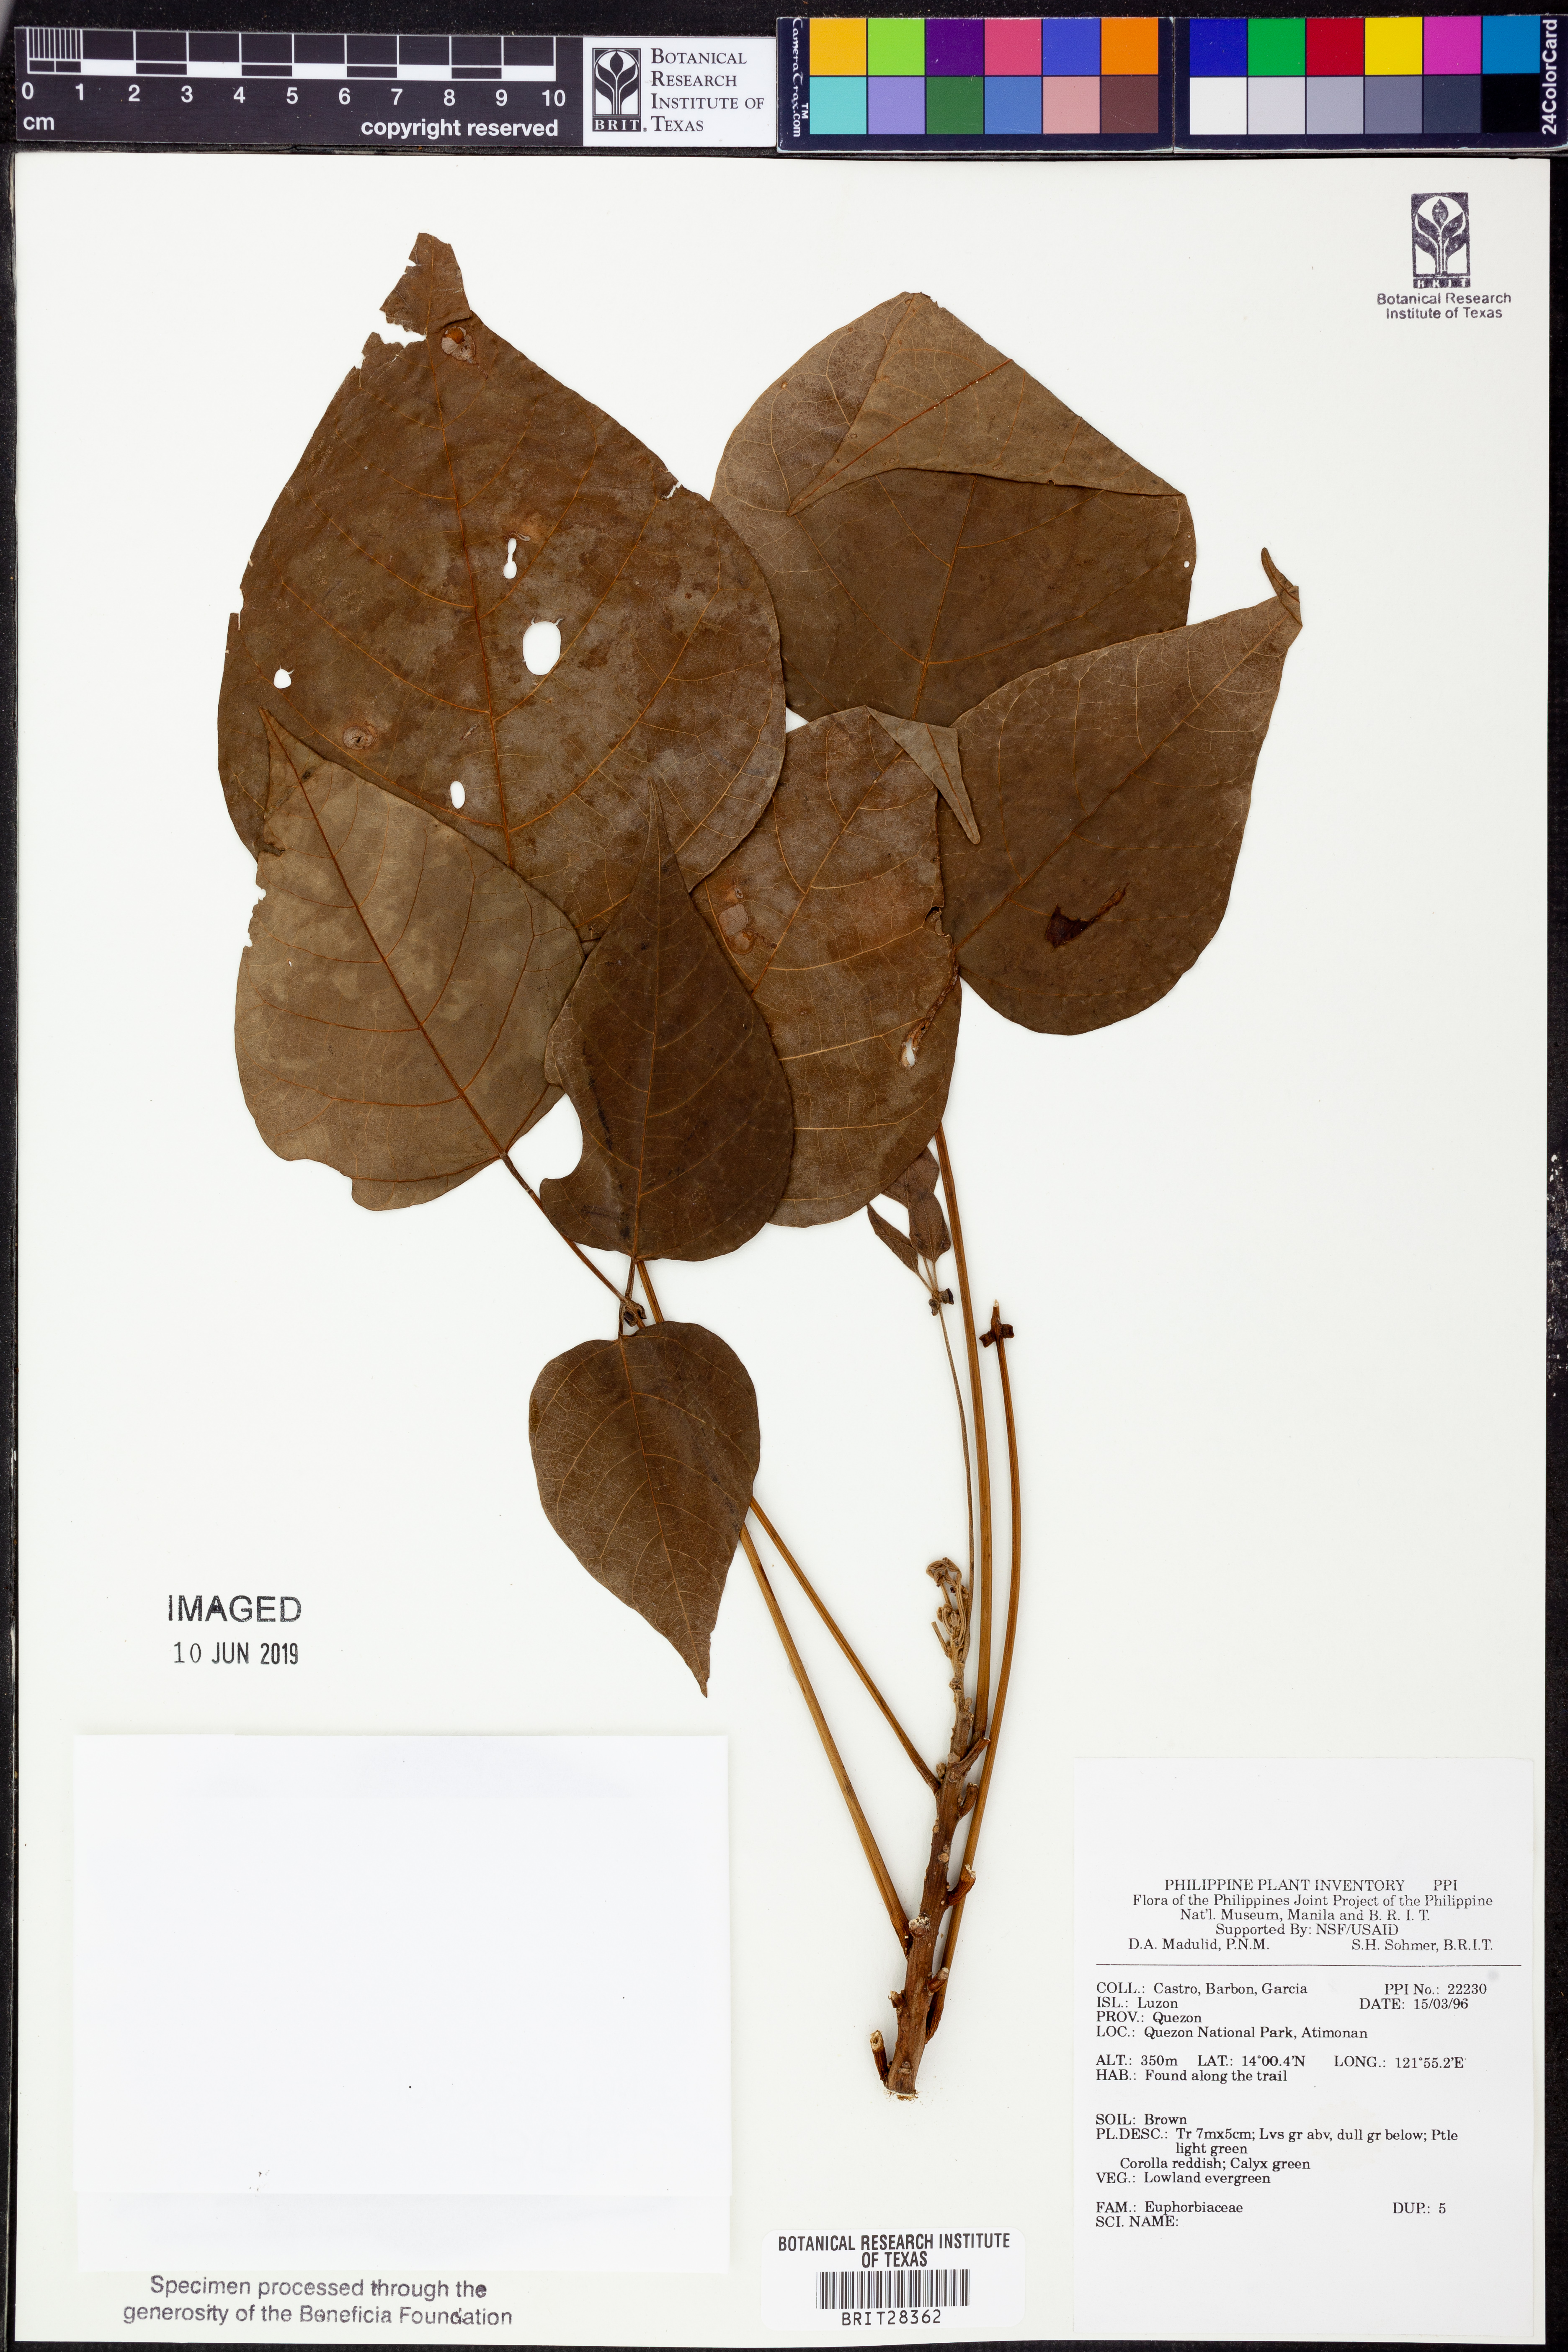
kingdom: Plantae
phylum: Tracheophyta
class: Magnoliopsida
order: Malpighiales
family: Euphorbiaceae
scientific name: Euphorbiaceae
